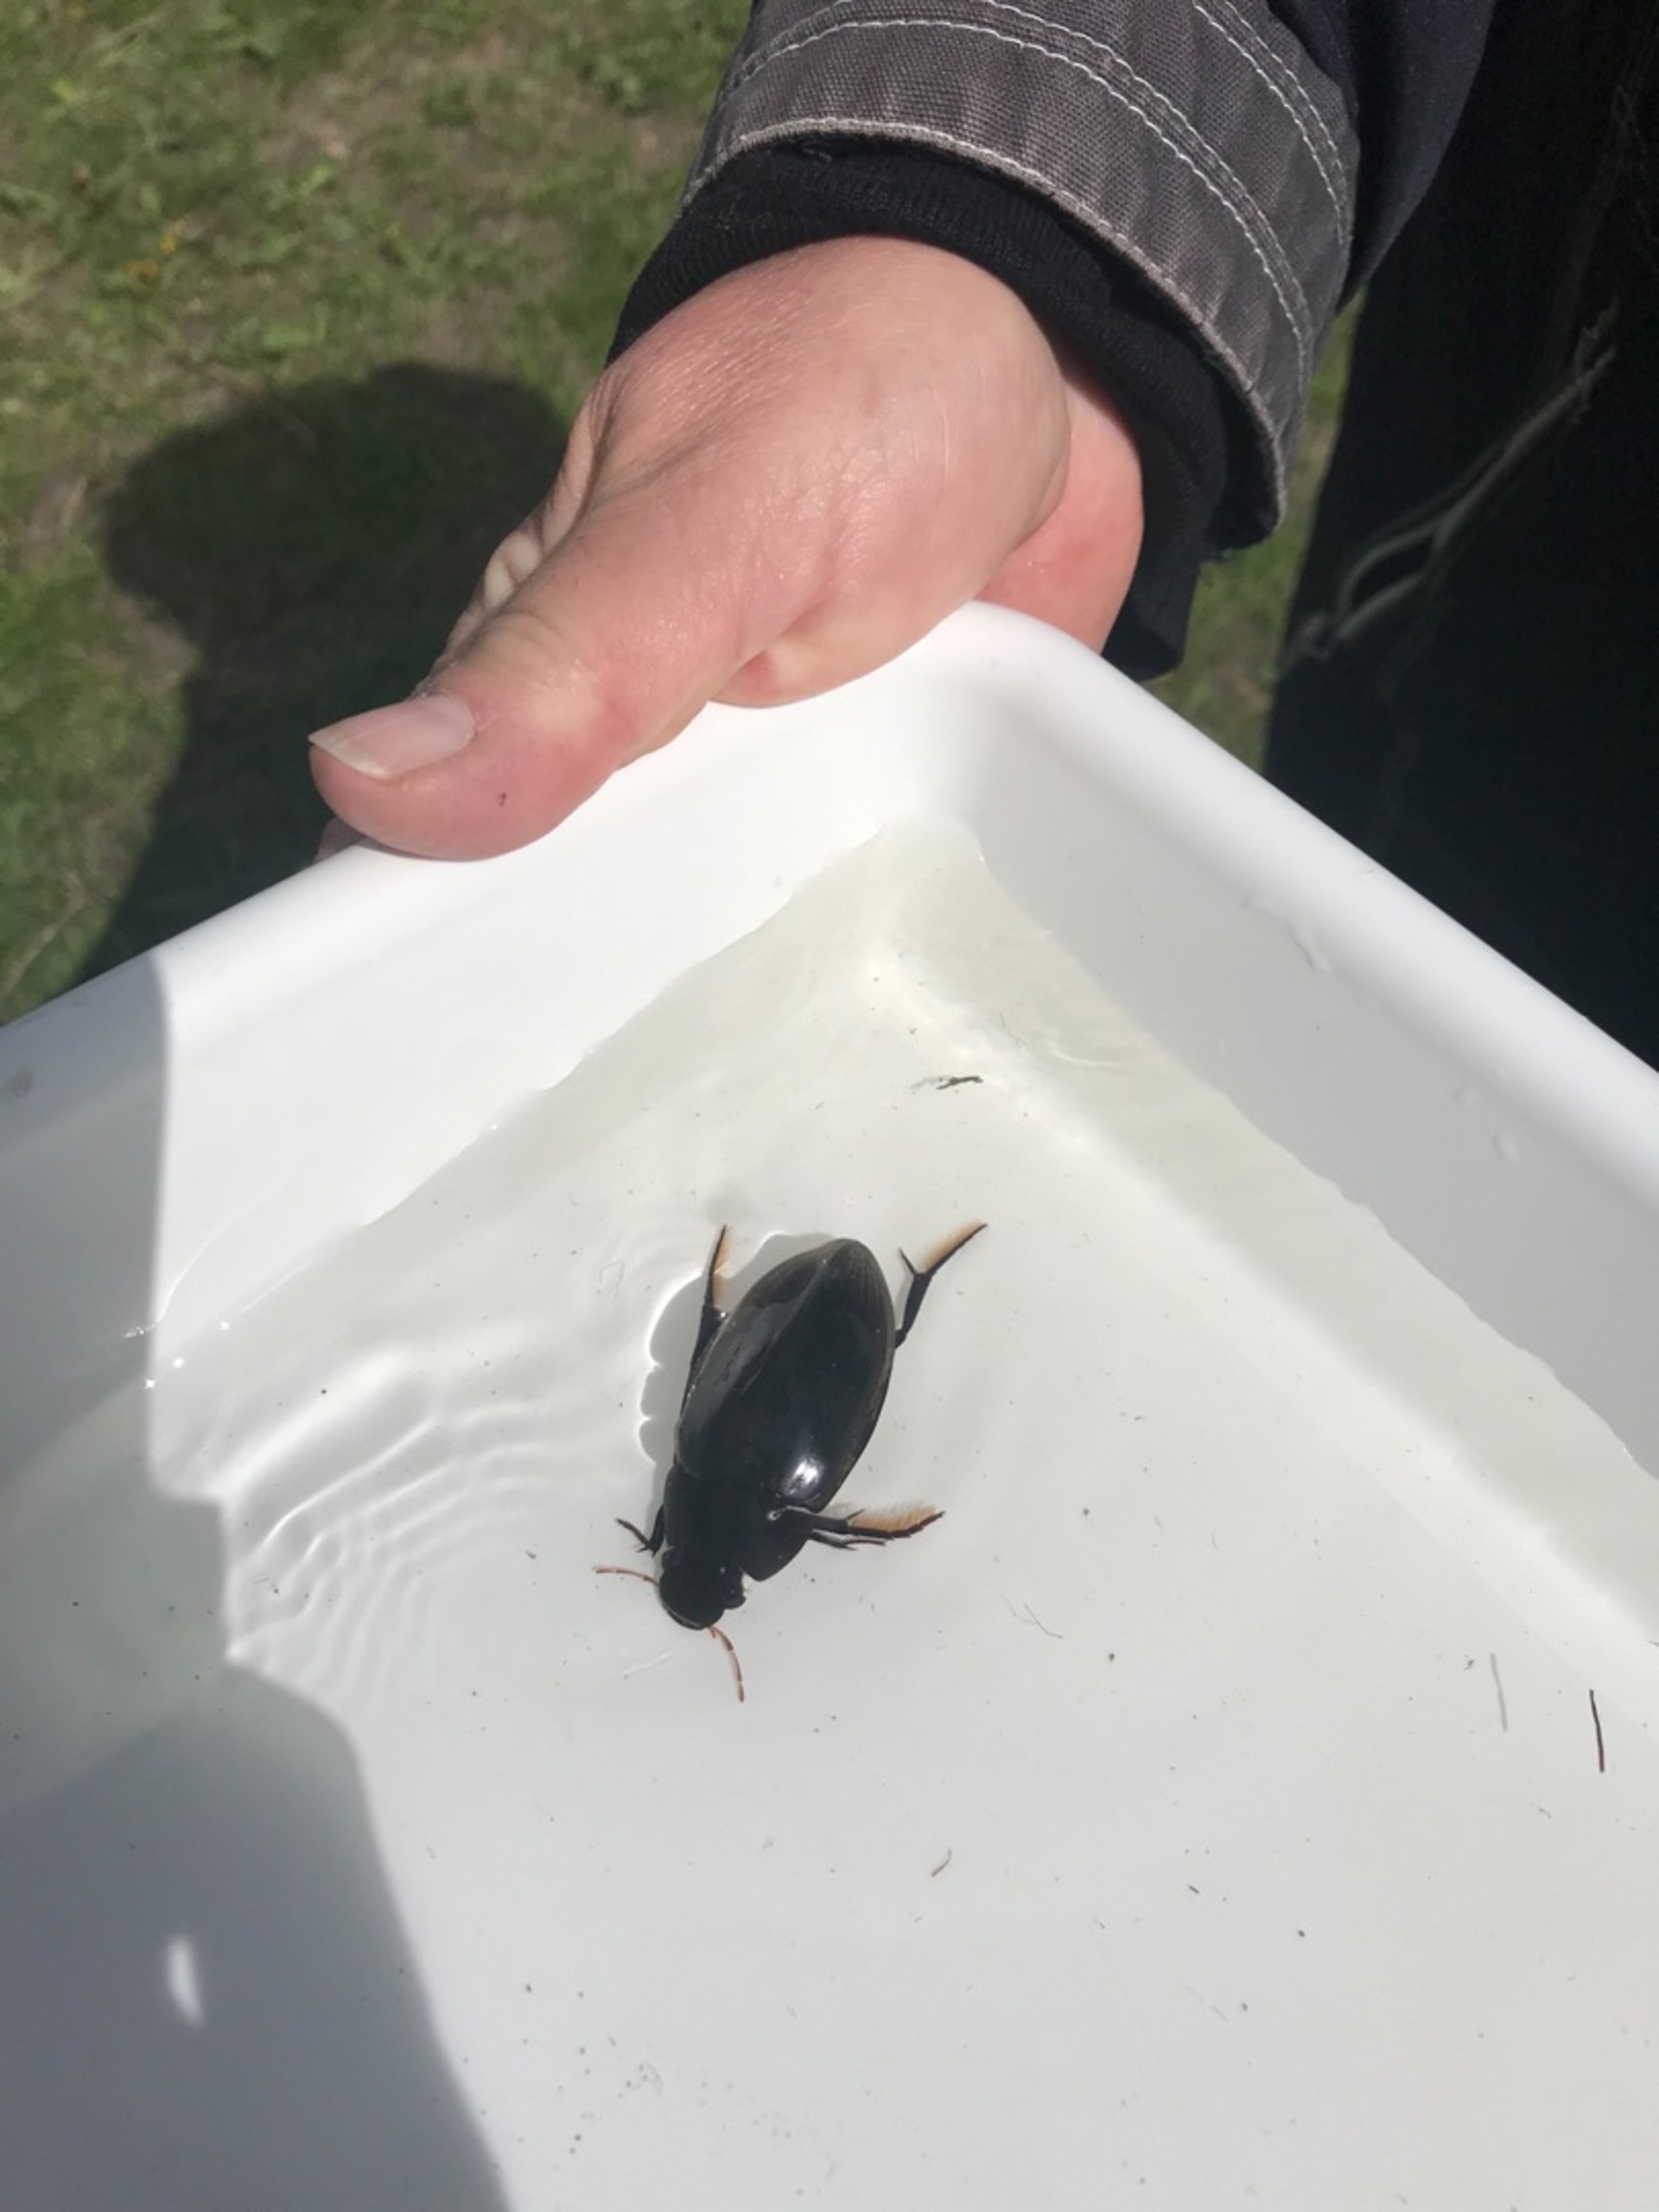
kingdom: Animalia
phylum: Arthropoda
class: Insecta
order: Coleoptera
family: Hydrophilidae
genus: Hydrophilus
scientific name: Hydrophilus
